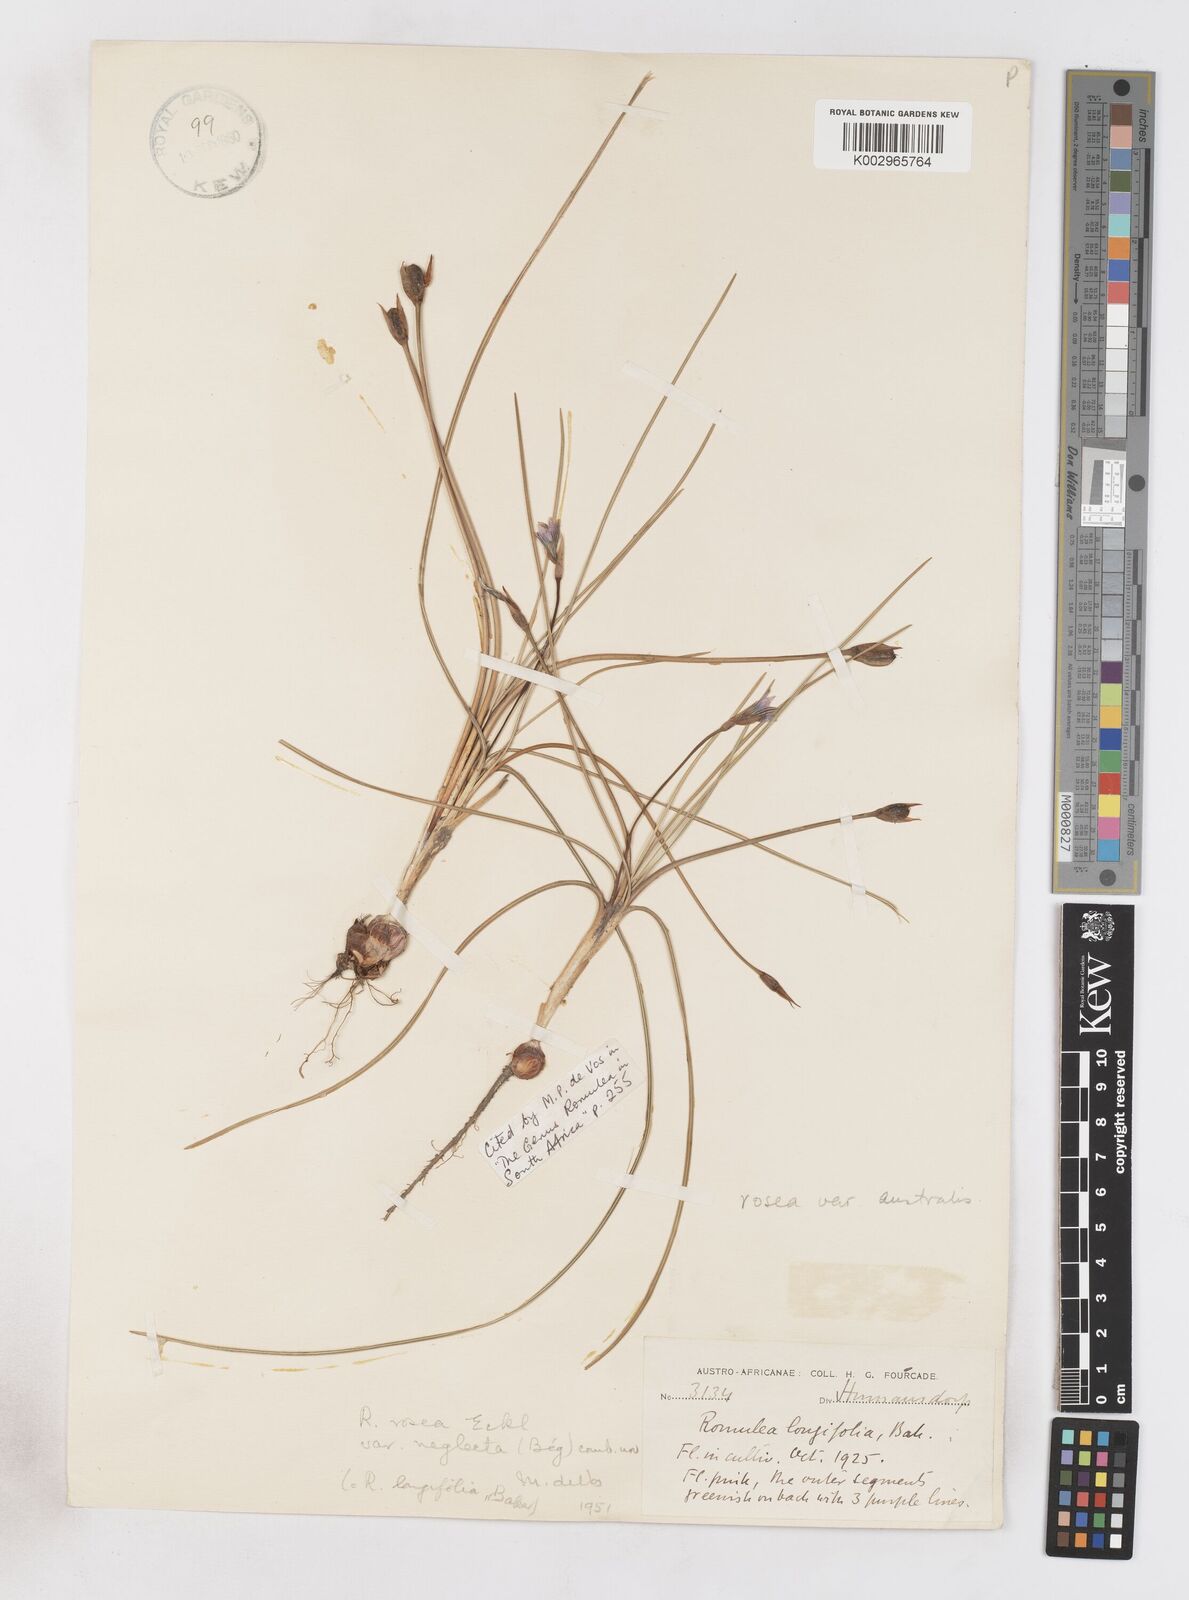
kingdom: Plantae
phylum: Tracheophyta
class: Liliopsida
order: Asparagales
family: Iridaceae
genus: Romulea
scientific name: Romulea rosea
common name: Oniongrass
